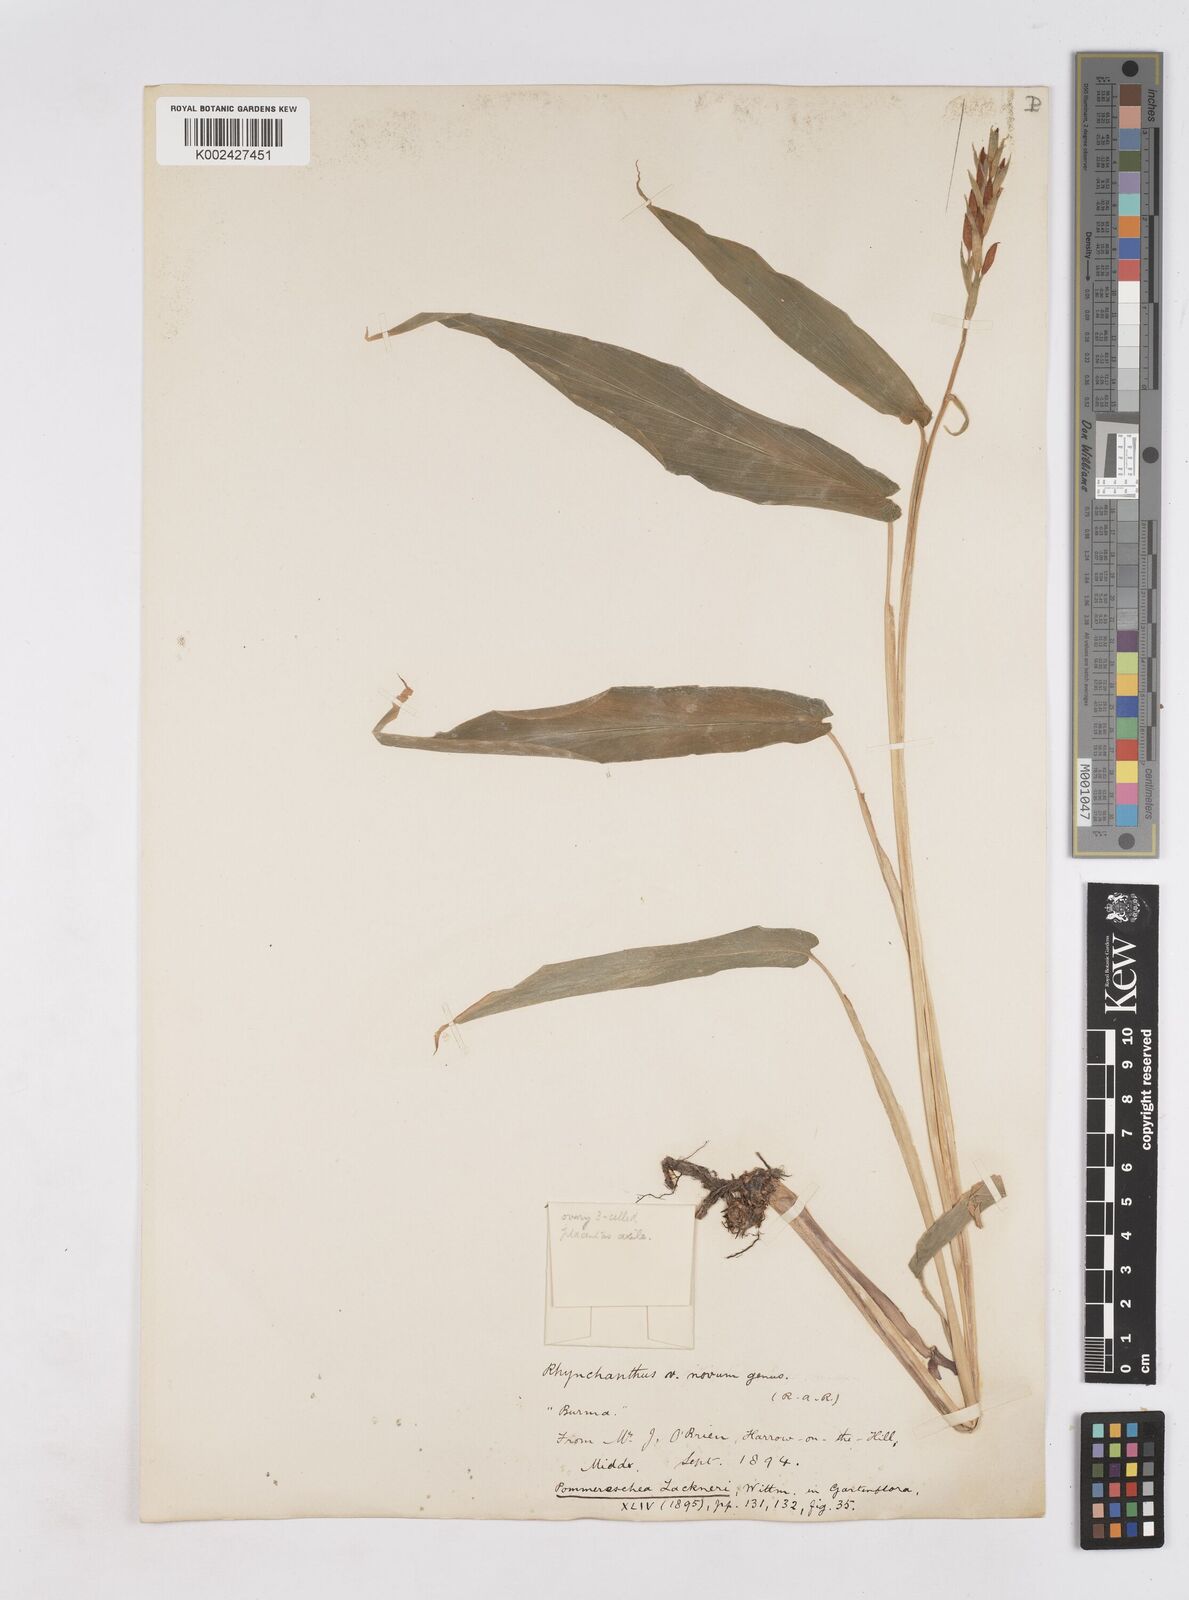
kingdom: Plantae
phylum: Tracheophyta
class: Liliopsida
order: Zingiberales
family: Zingiberaceae
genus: Pommereschea
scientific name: Pommereschea lackneri
